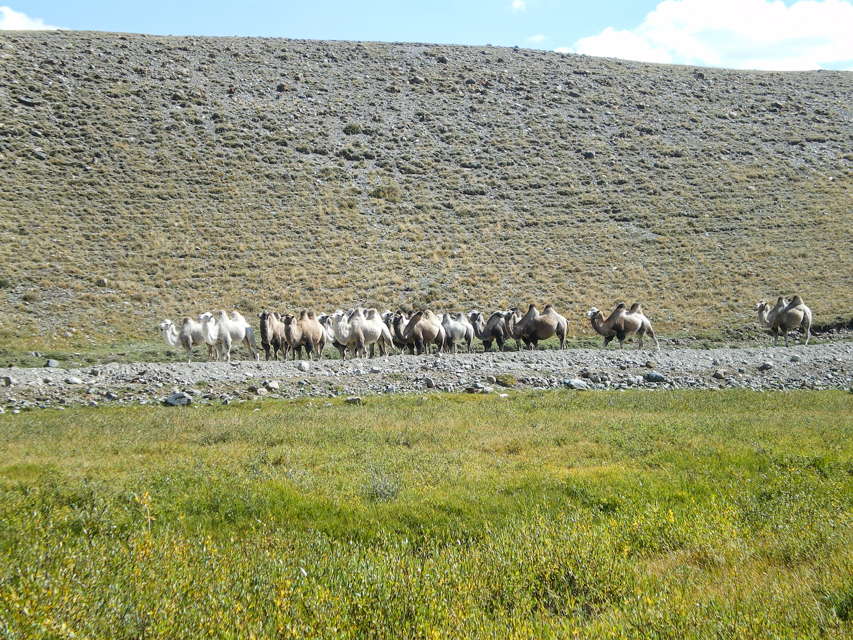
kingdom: Animalia
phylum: Chordata
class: Mammalia
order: Artiodactyla
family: Camelidae
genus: Camelus
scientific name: Camelus dromedarius
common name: One-humped camel
